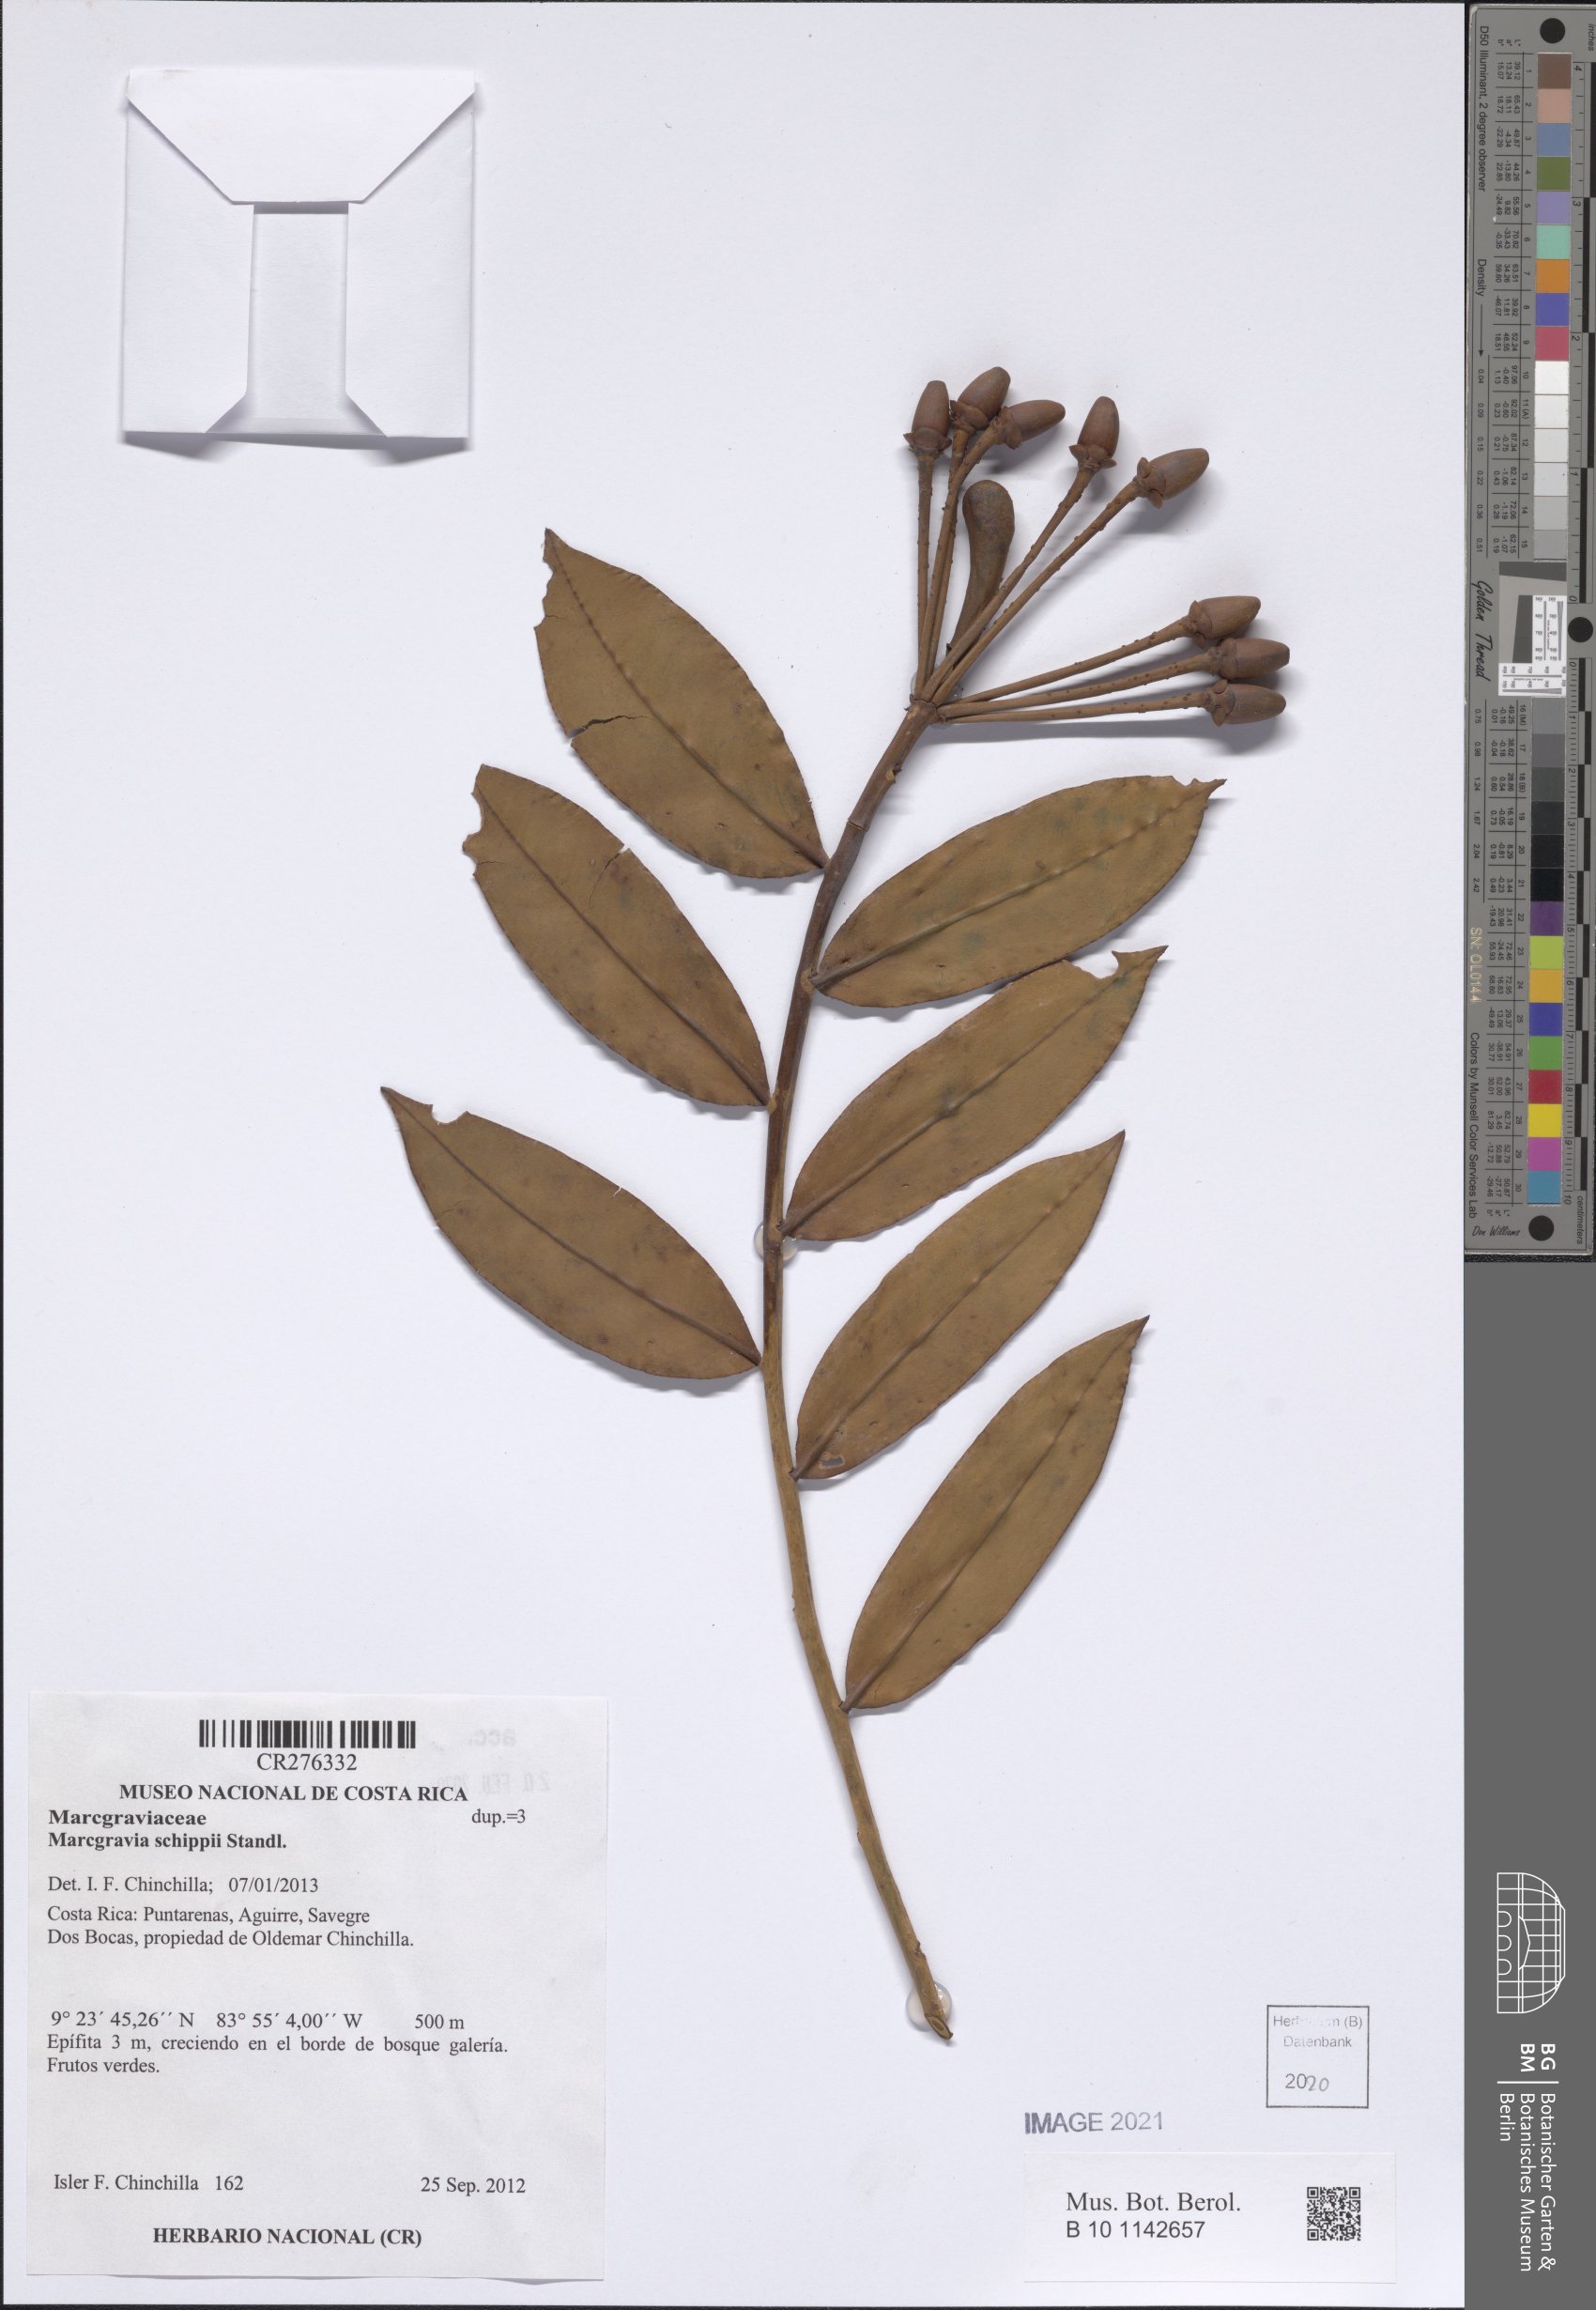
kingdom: Plantae
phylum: Tracheophyta
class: Magnoliopsida
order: Ericales
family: Marcgraviaceae
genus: Marcgravia
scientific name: Marcgravia
